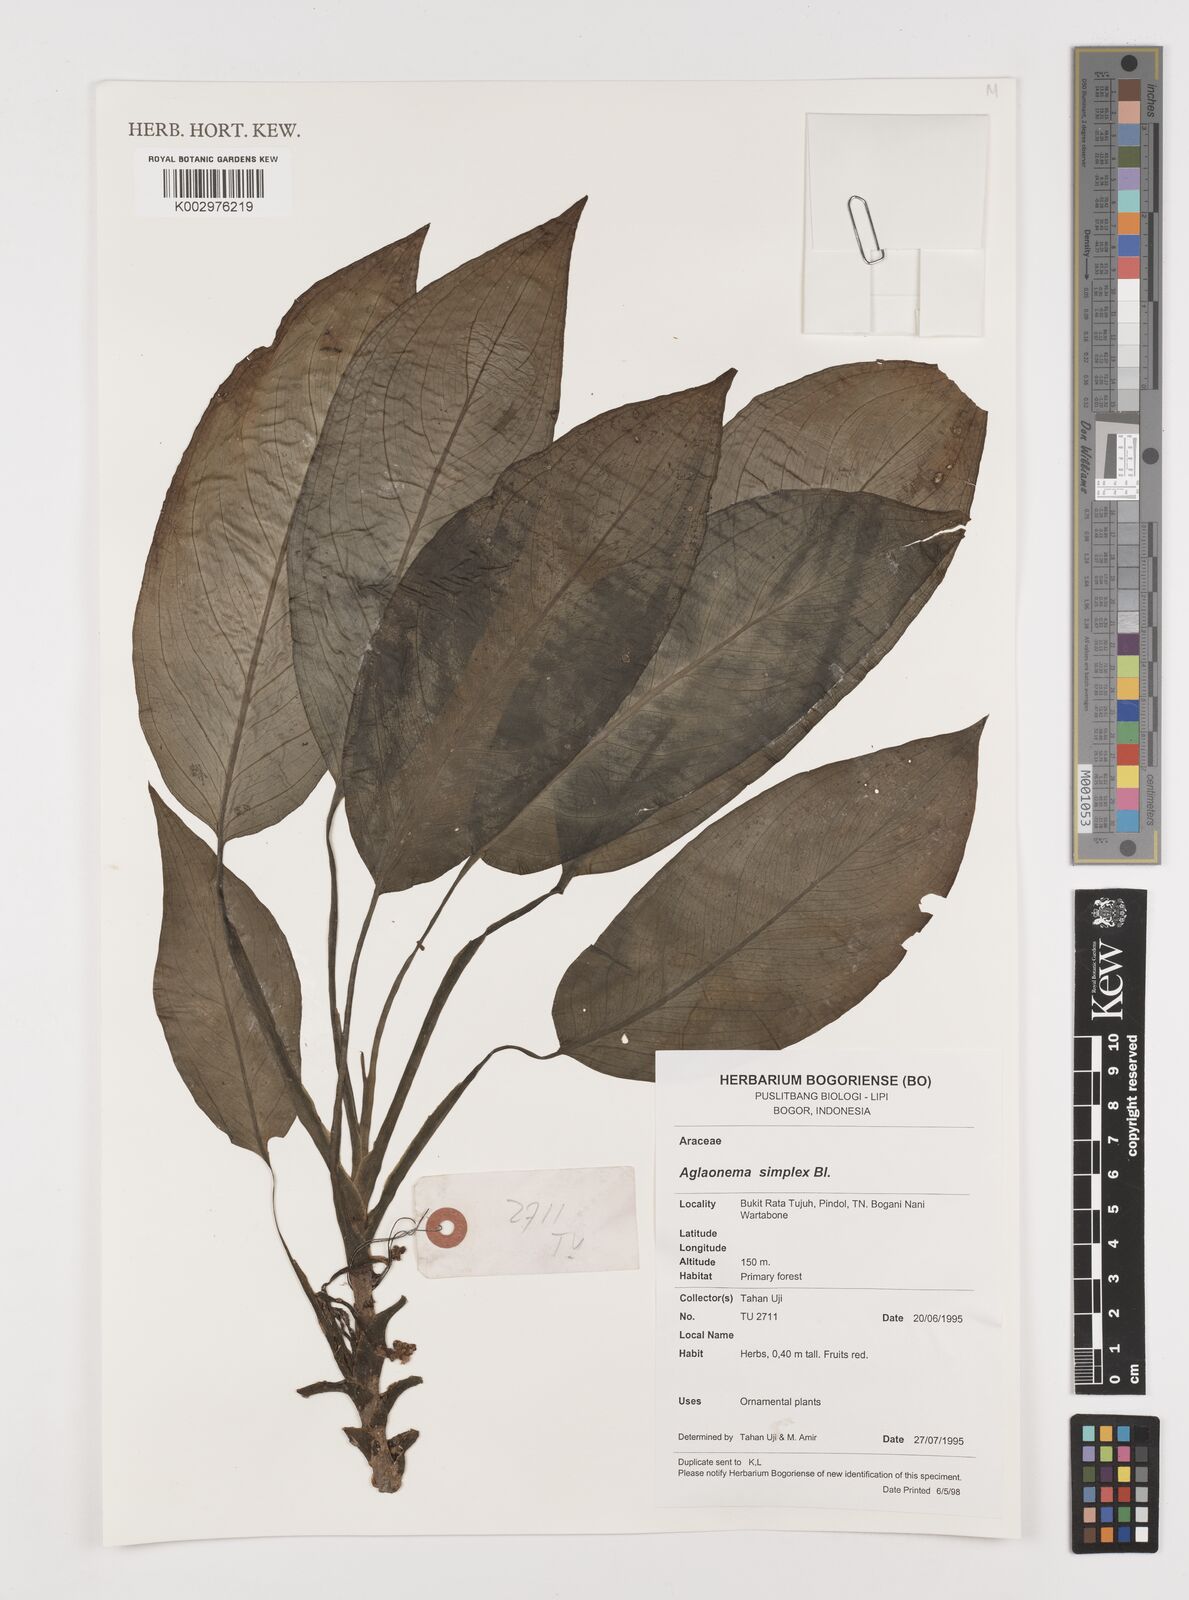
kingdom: Plantae
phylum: Tracheophyta
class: Liliopsida
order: Alismatales
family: Araceae
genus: Aglaonema
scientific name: Aglaonema simplex
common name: Malayan-sword
